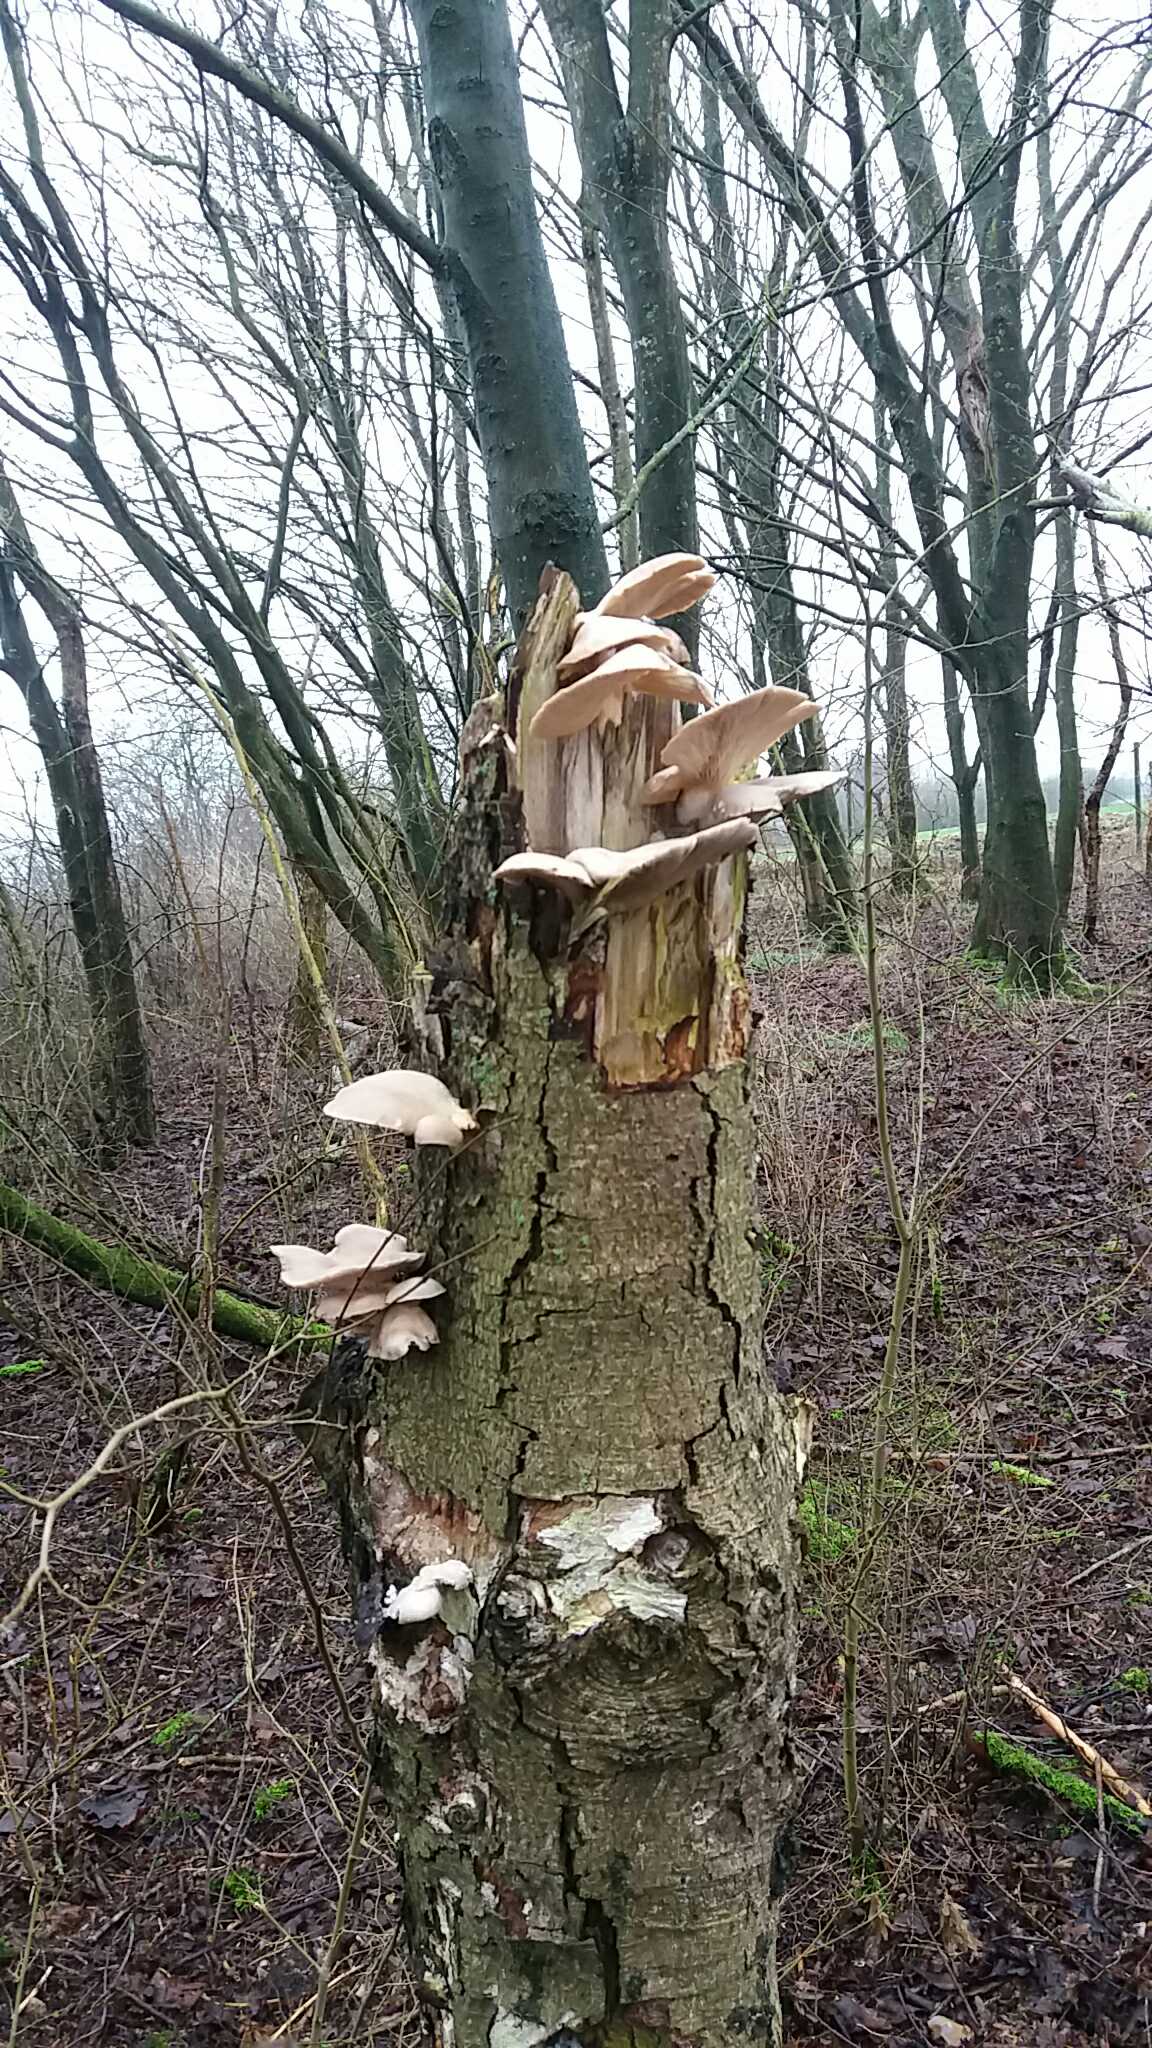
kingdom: Fungi
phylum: Basidiomycota
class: Agaricomycetes
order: Agaricales
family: Pleurotaceae
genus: Pleurotus
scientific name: Pleurotus ostreatus
